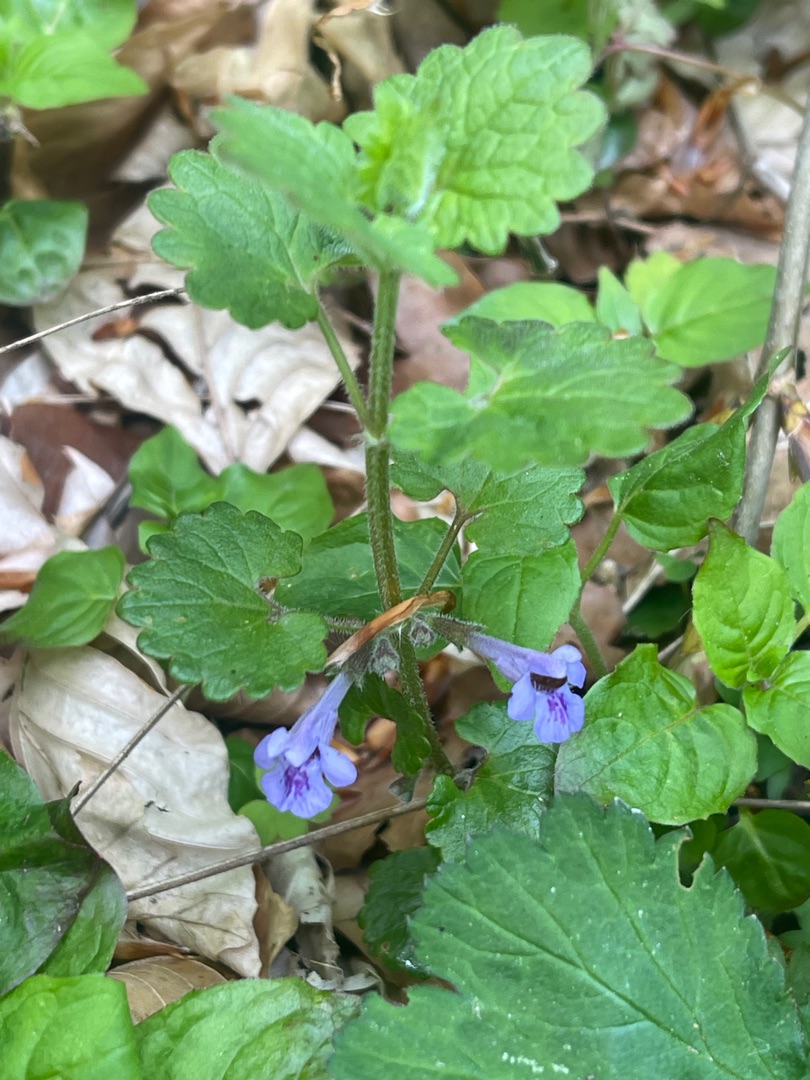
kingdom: Plantae
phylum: Tracheophyta
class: Magnoliopsida
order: Lamiales
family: Lamiaceae
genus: Glechoma
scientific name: Glechoma hederacea
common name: Korsknap
